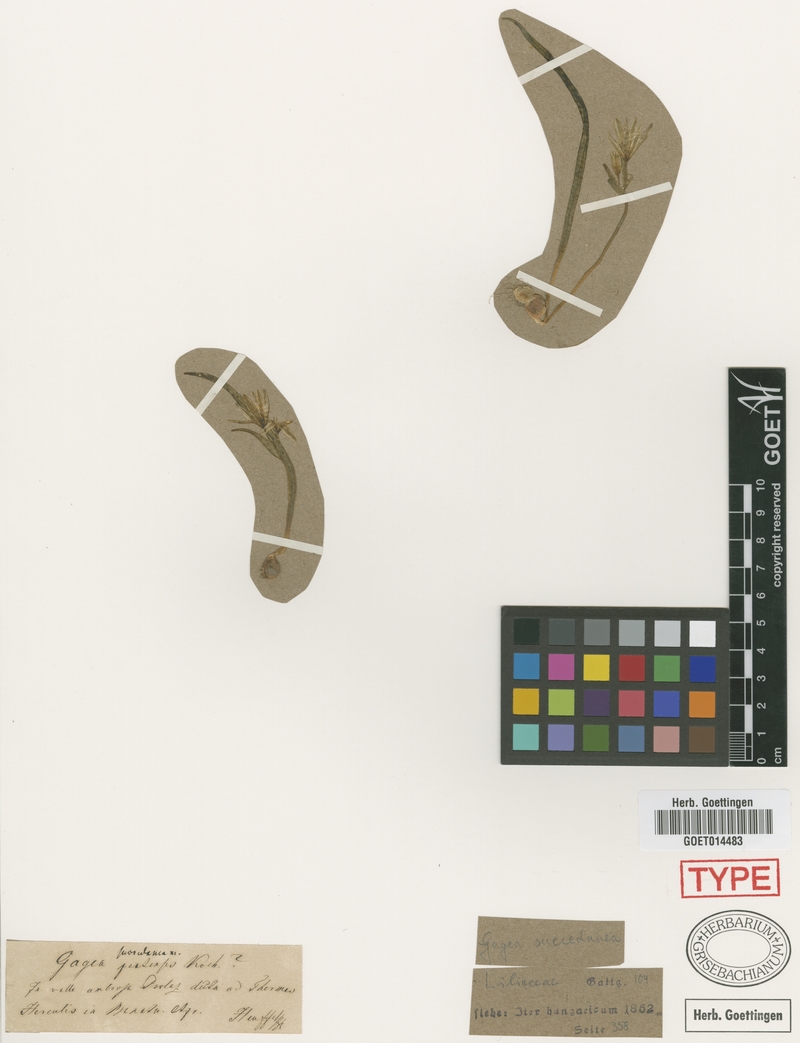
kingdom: Plantae
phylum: Tracheophyta
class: Liliopsida
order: Liliales
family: Liliaceae
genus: Gagea
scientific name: Gagea pratensis
